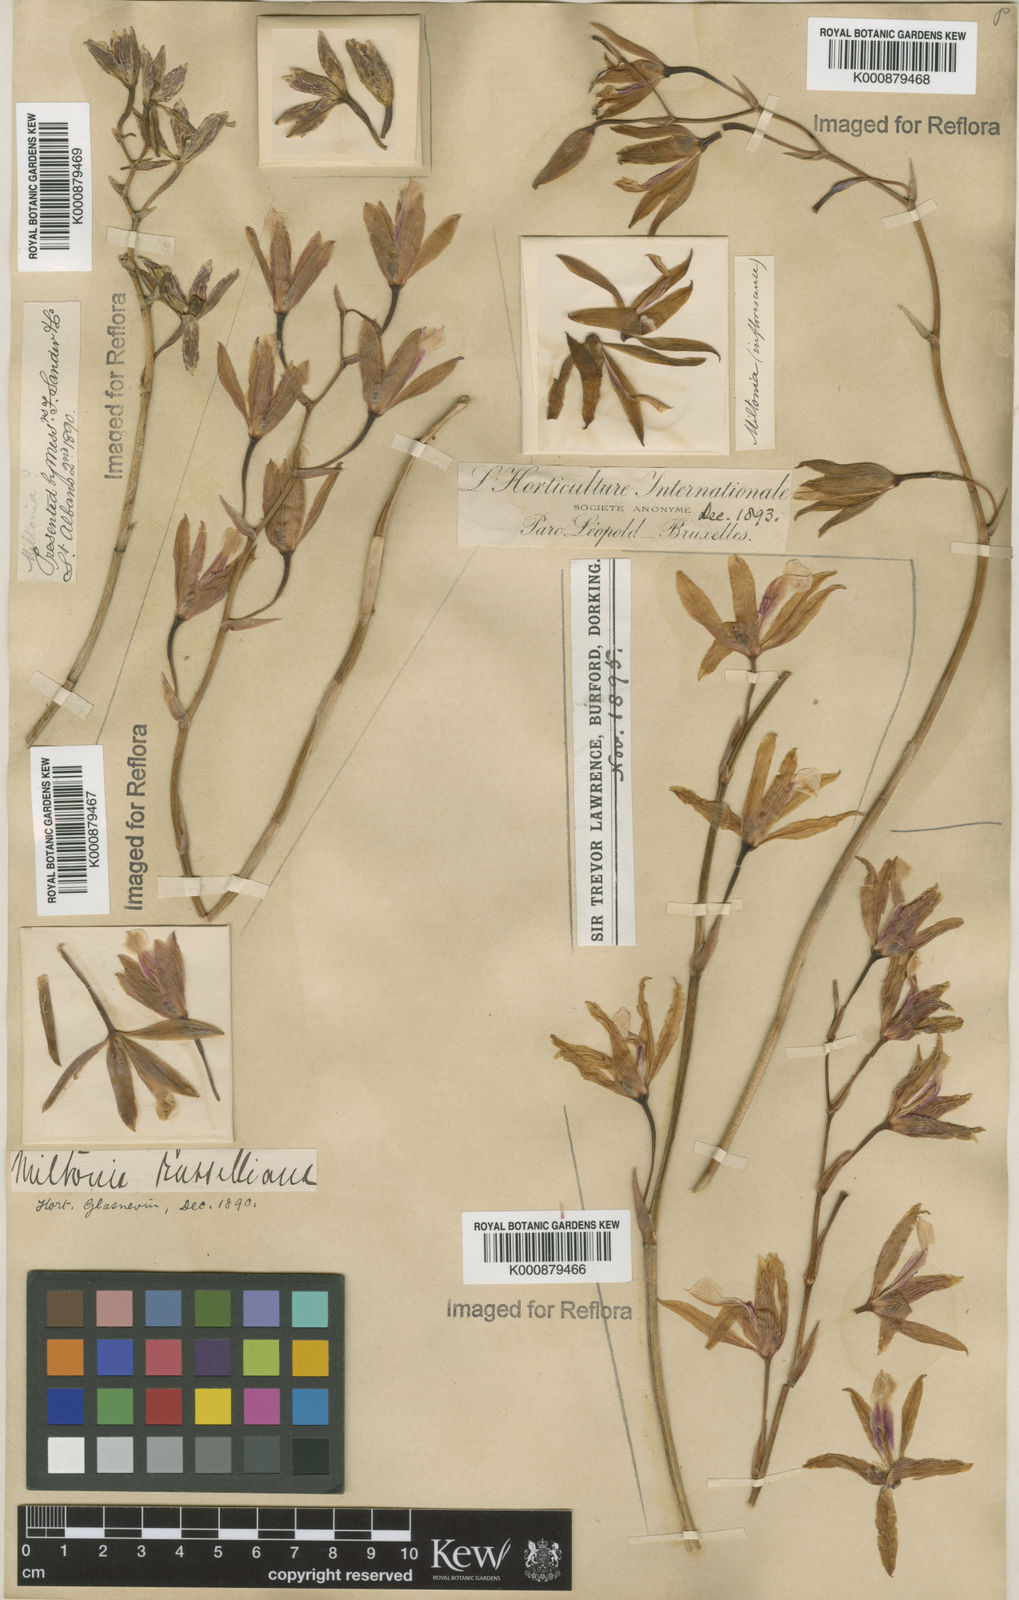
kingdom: Plantae
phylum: Tracheophyta
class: Liliopsida
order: Asparagales
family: Orchidaceae
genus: Miltonia
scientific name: Miltonia russelliana
